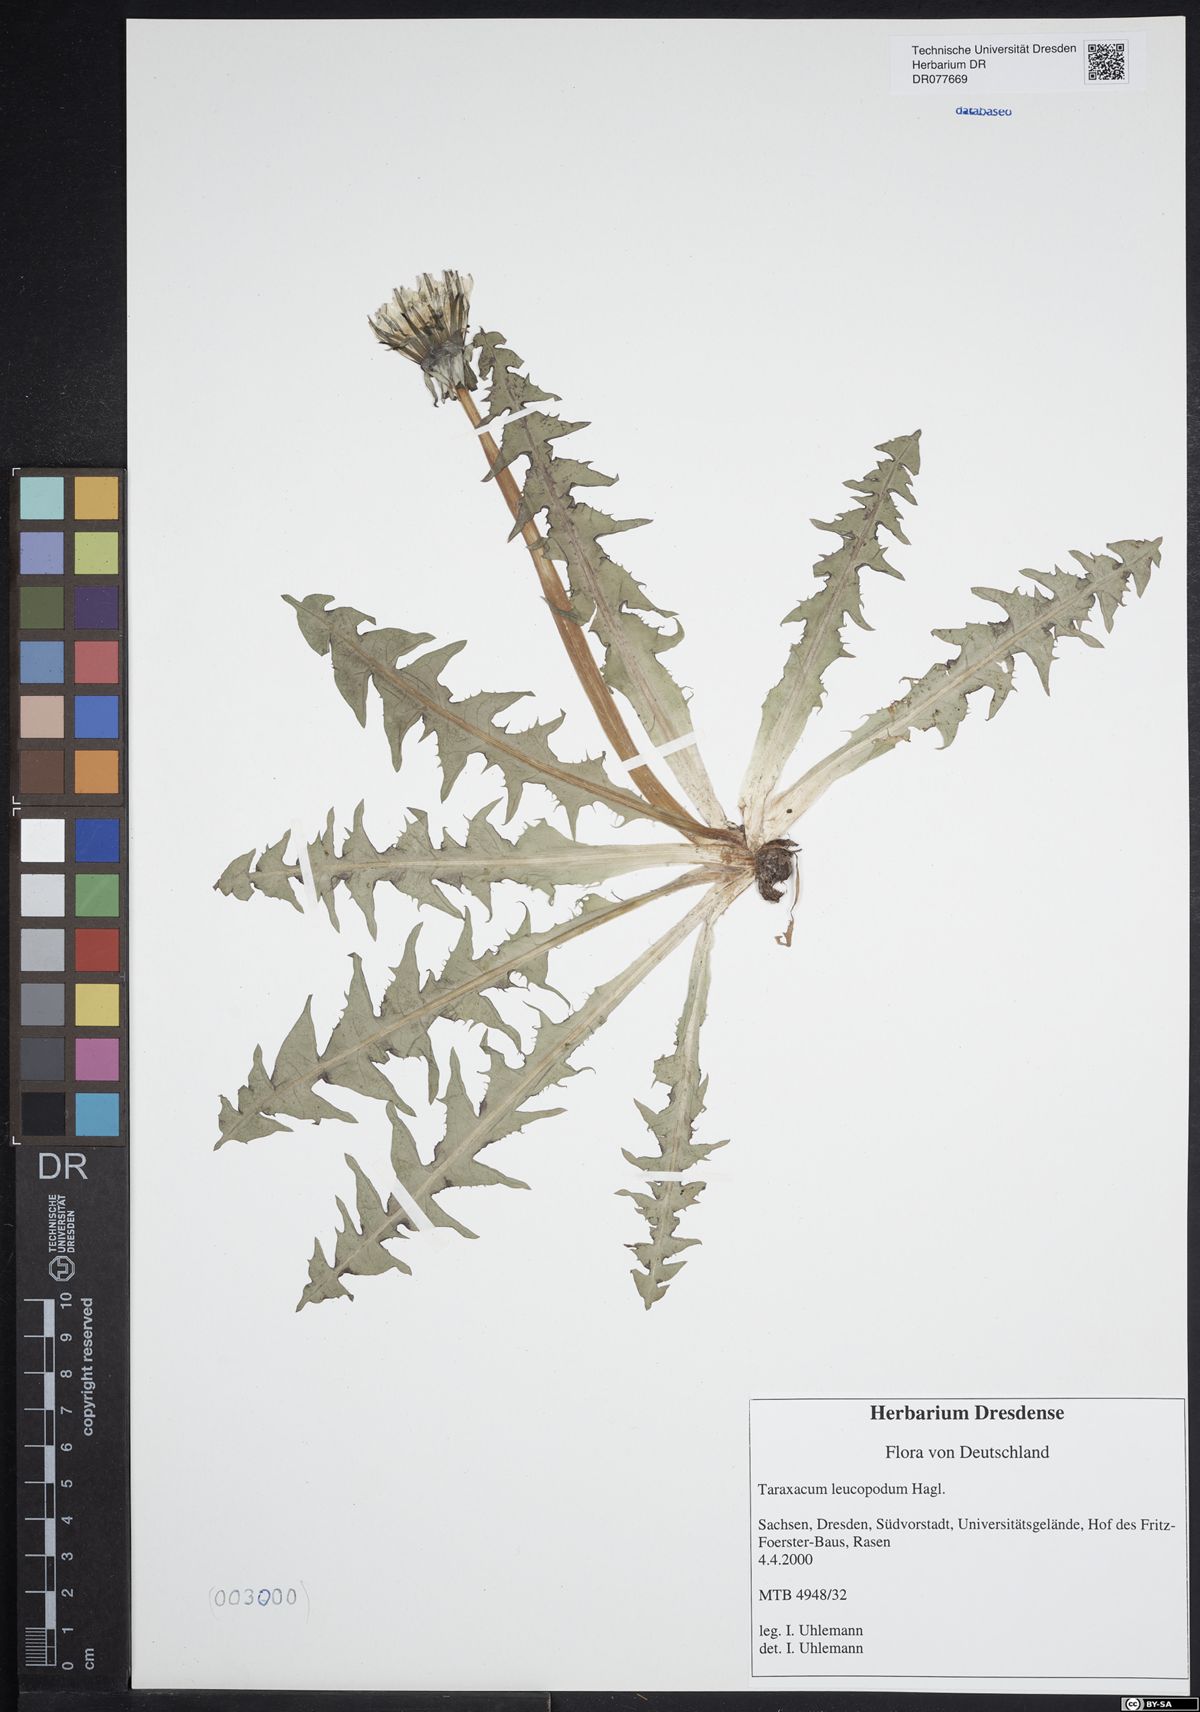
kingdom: Plantae
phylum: Tracheophyta
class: Magnoliopsida
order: Asterales
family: Asteraceae
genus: Taraxacum
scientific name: Taraxacum leucopodum
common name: White-stalked dandelion
